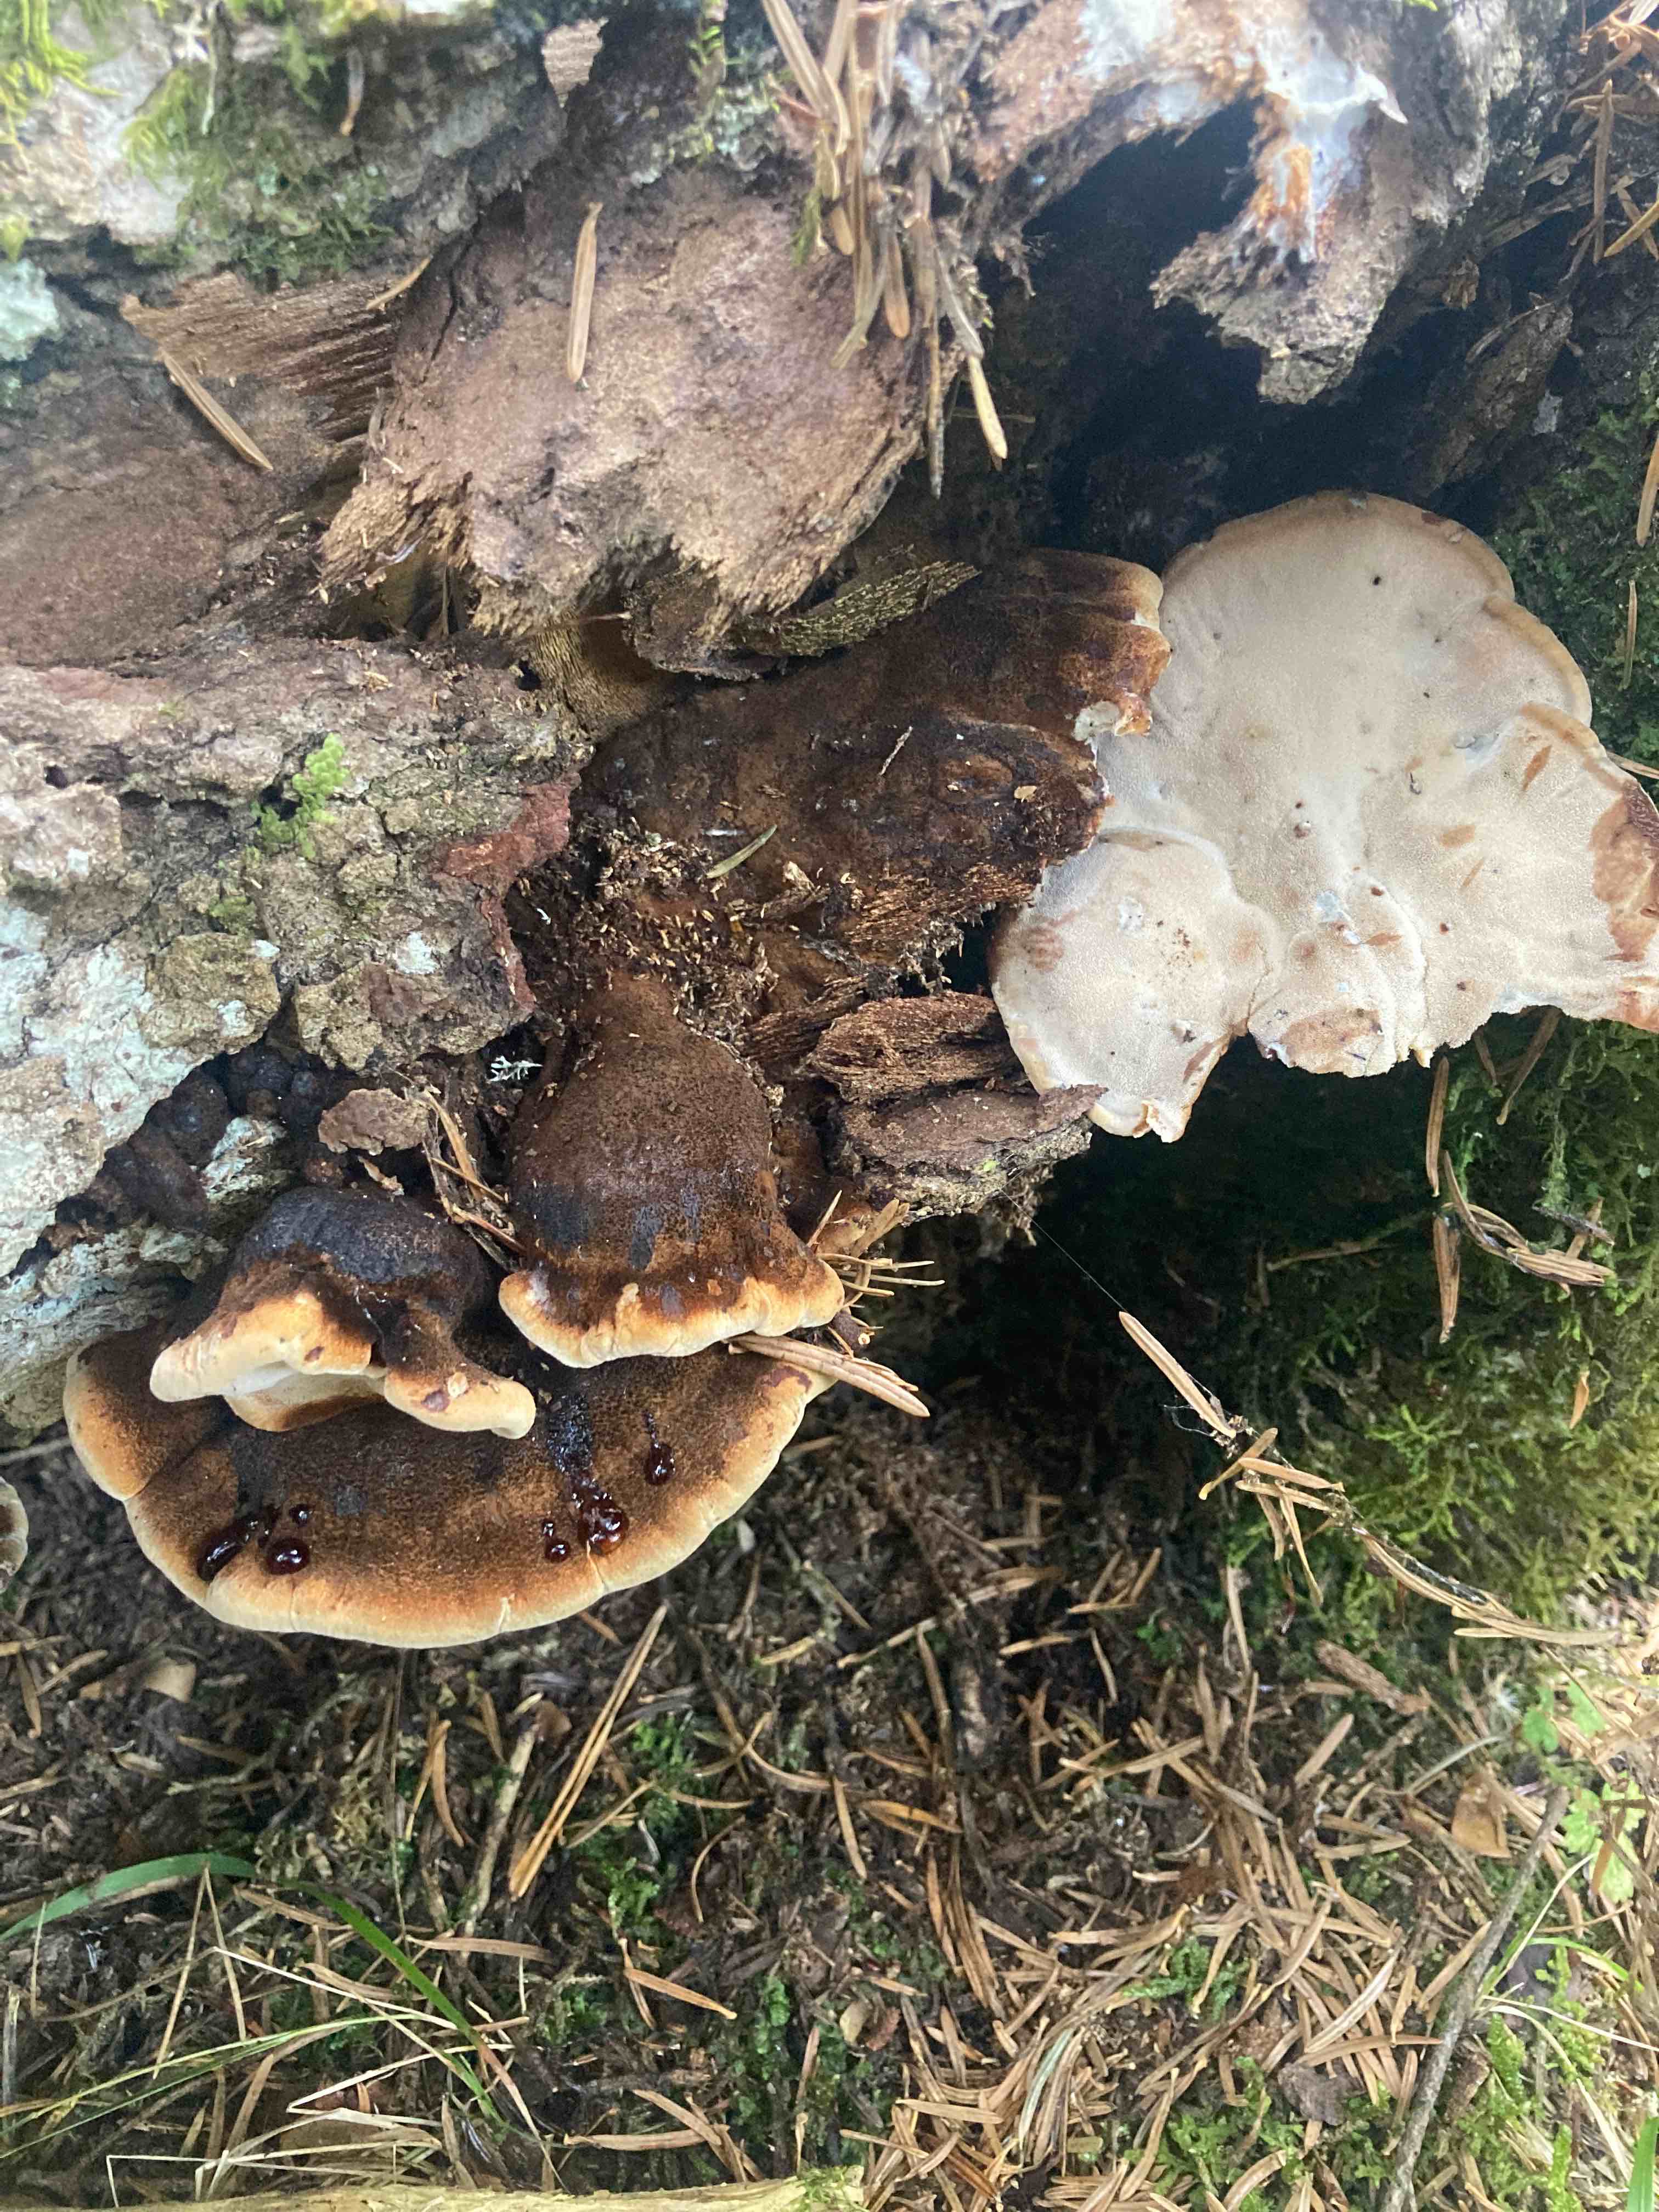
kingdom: Fungi
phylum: Basidiomycota
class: Agaricomycetes
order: Polyporales
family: Ischnodermataceae
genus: Ischnoderma
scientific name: Ischnoderma benzoinum
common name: gran-tjæreporesvamp
